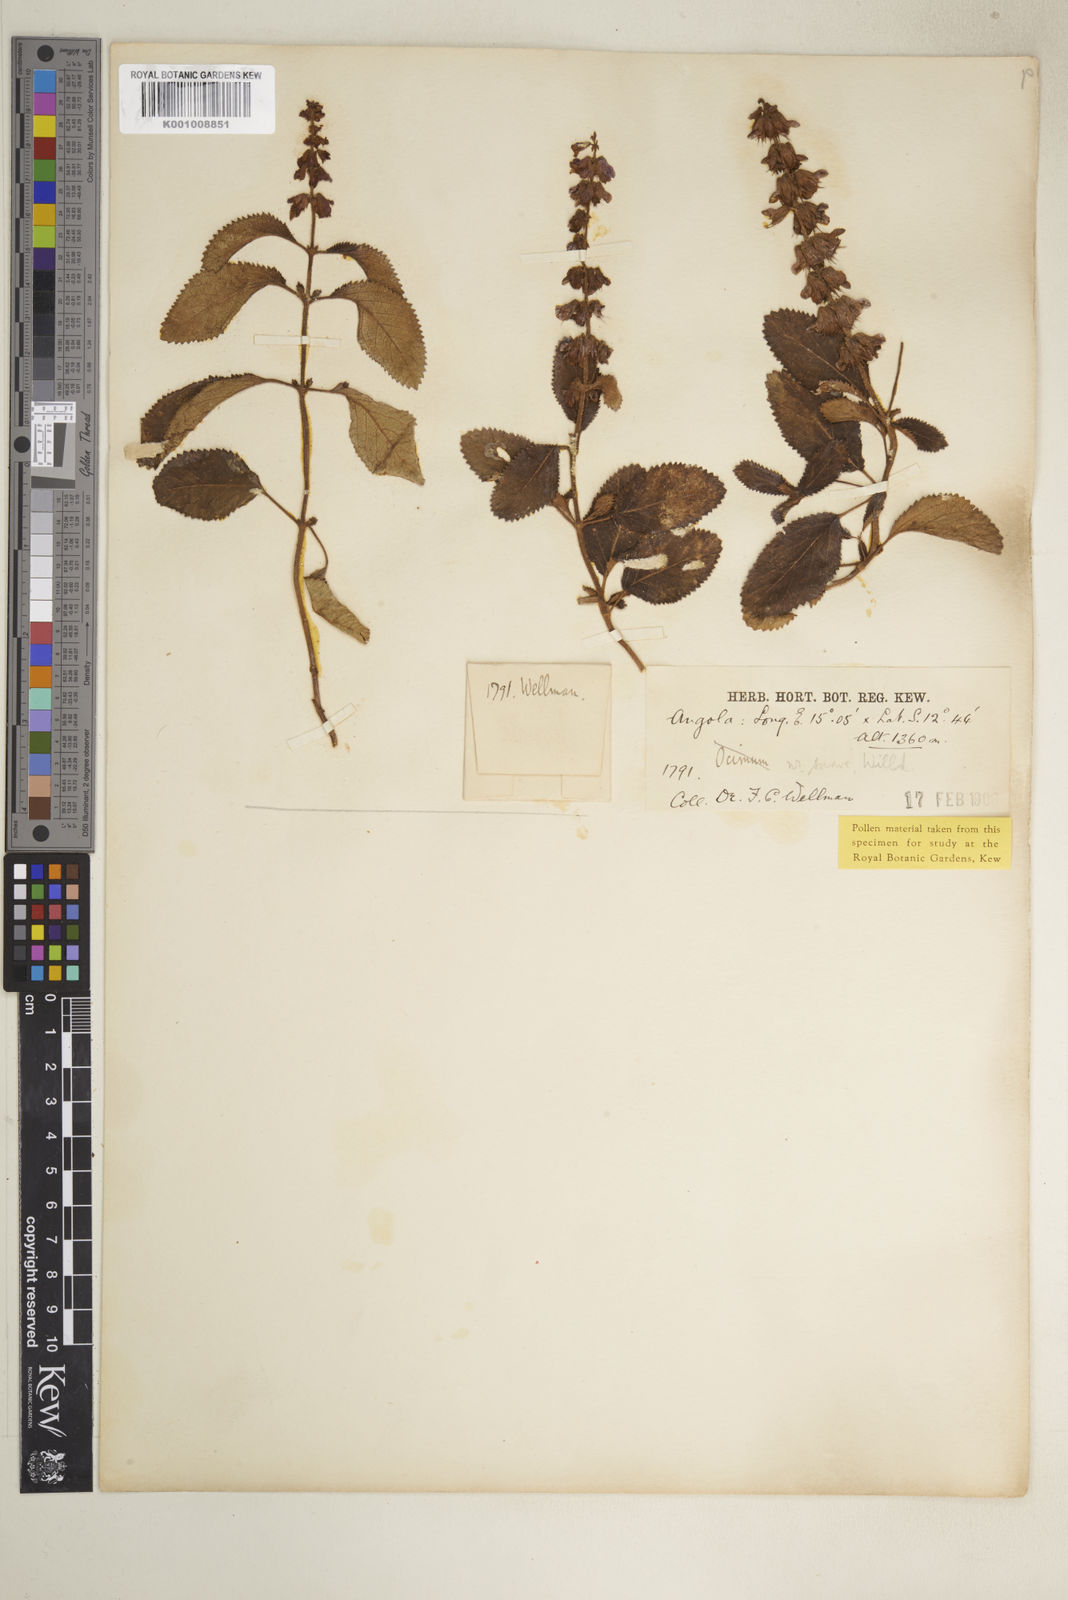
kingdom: Plantae
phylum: Tracheophyta
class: Magnoliopsida
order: Lamiales
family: Lamiaceae
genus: Orthosiphon
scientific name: Orthosiphon rubicundus
